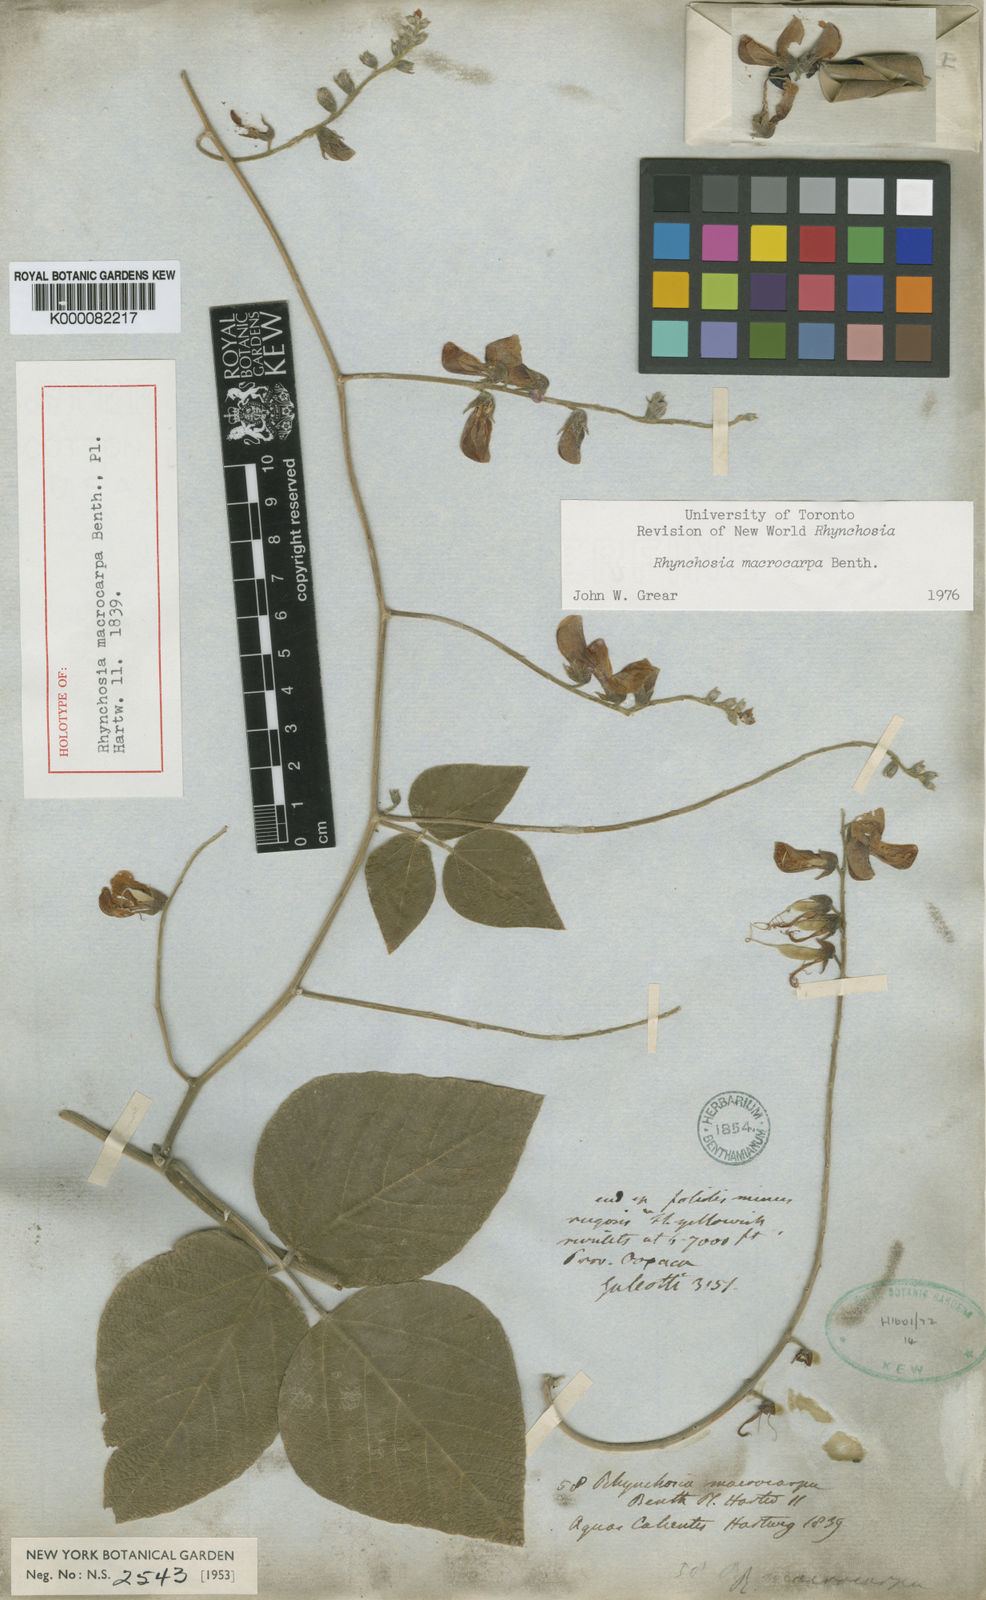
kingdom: Plantae
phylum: Tracheophyta
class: Magnoliopsida
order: Fabales
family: Fabaceae
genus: Rhynchosia
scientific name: Rhynchosia macrocarpa
